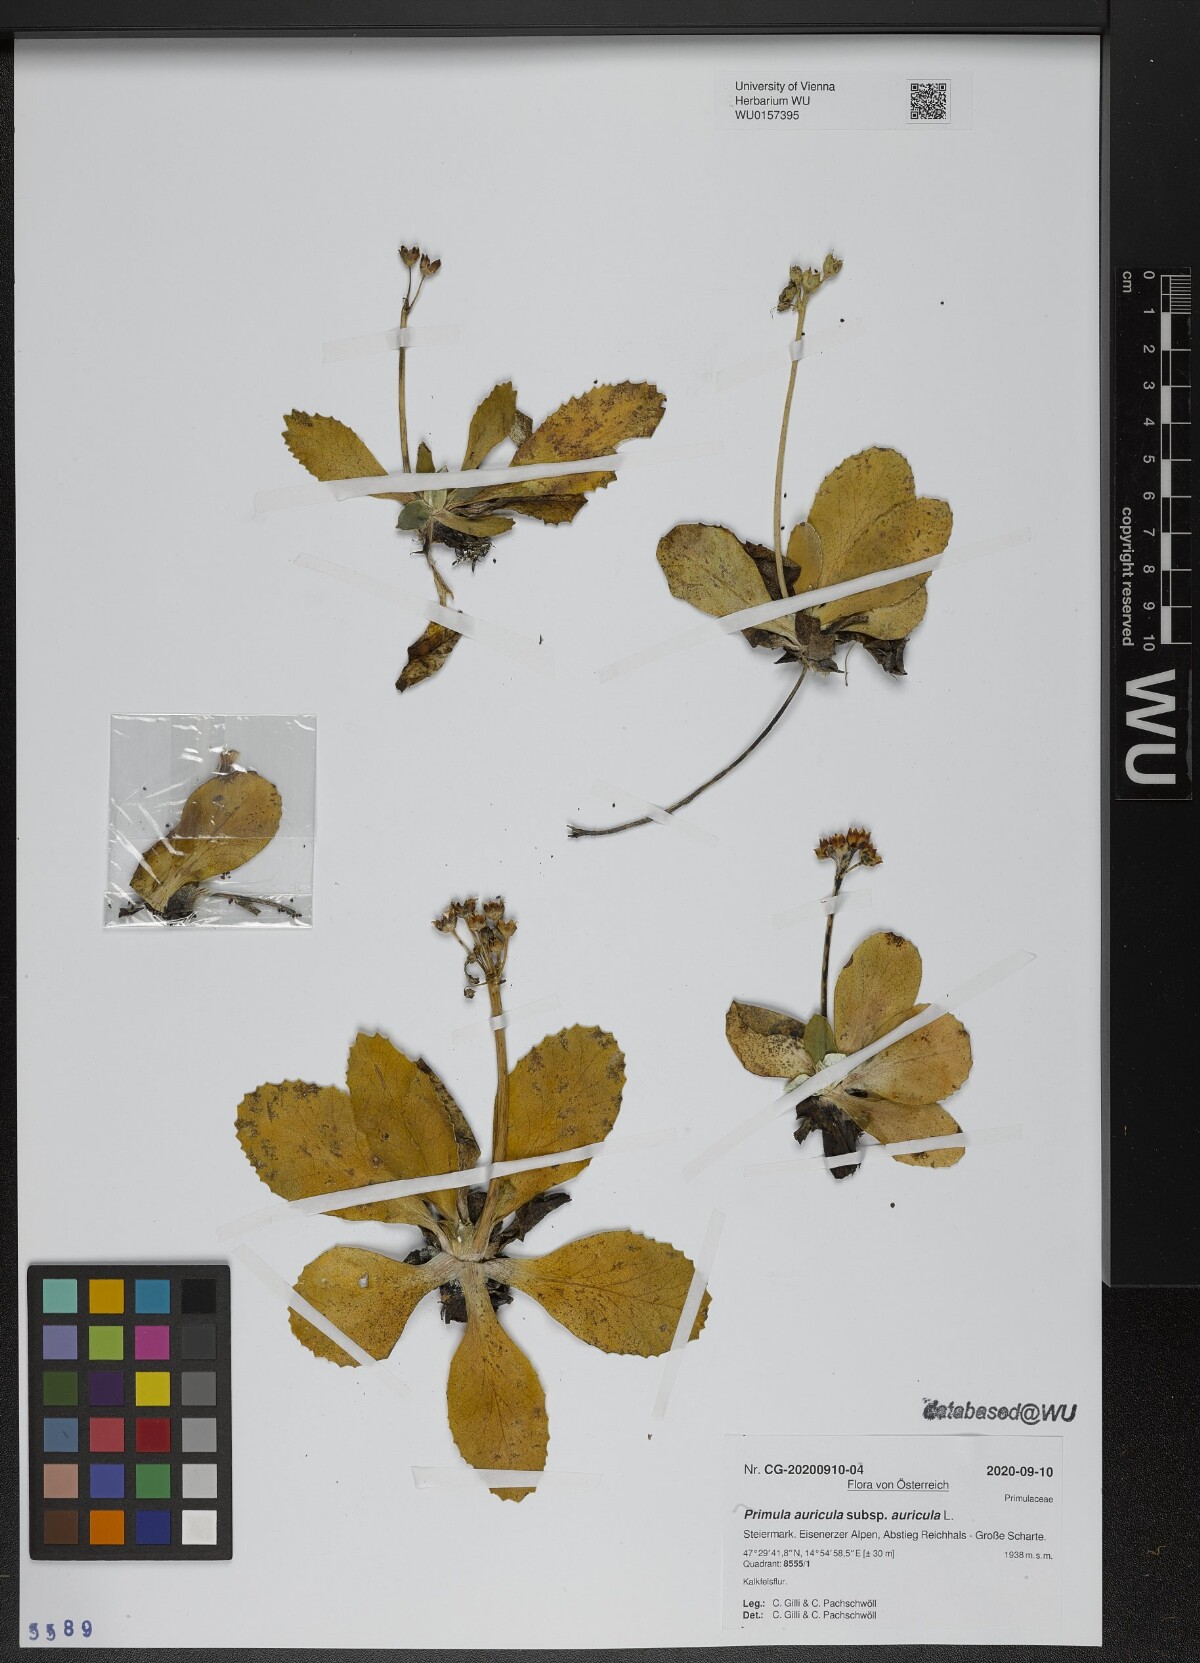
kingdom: Plantae
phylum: Tracheophyta
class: Magnoliopsida
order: Ericales
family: Primulaceae
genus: Primula
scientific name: Primula auricula
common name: Auricula
